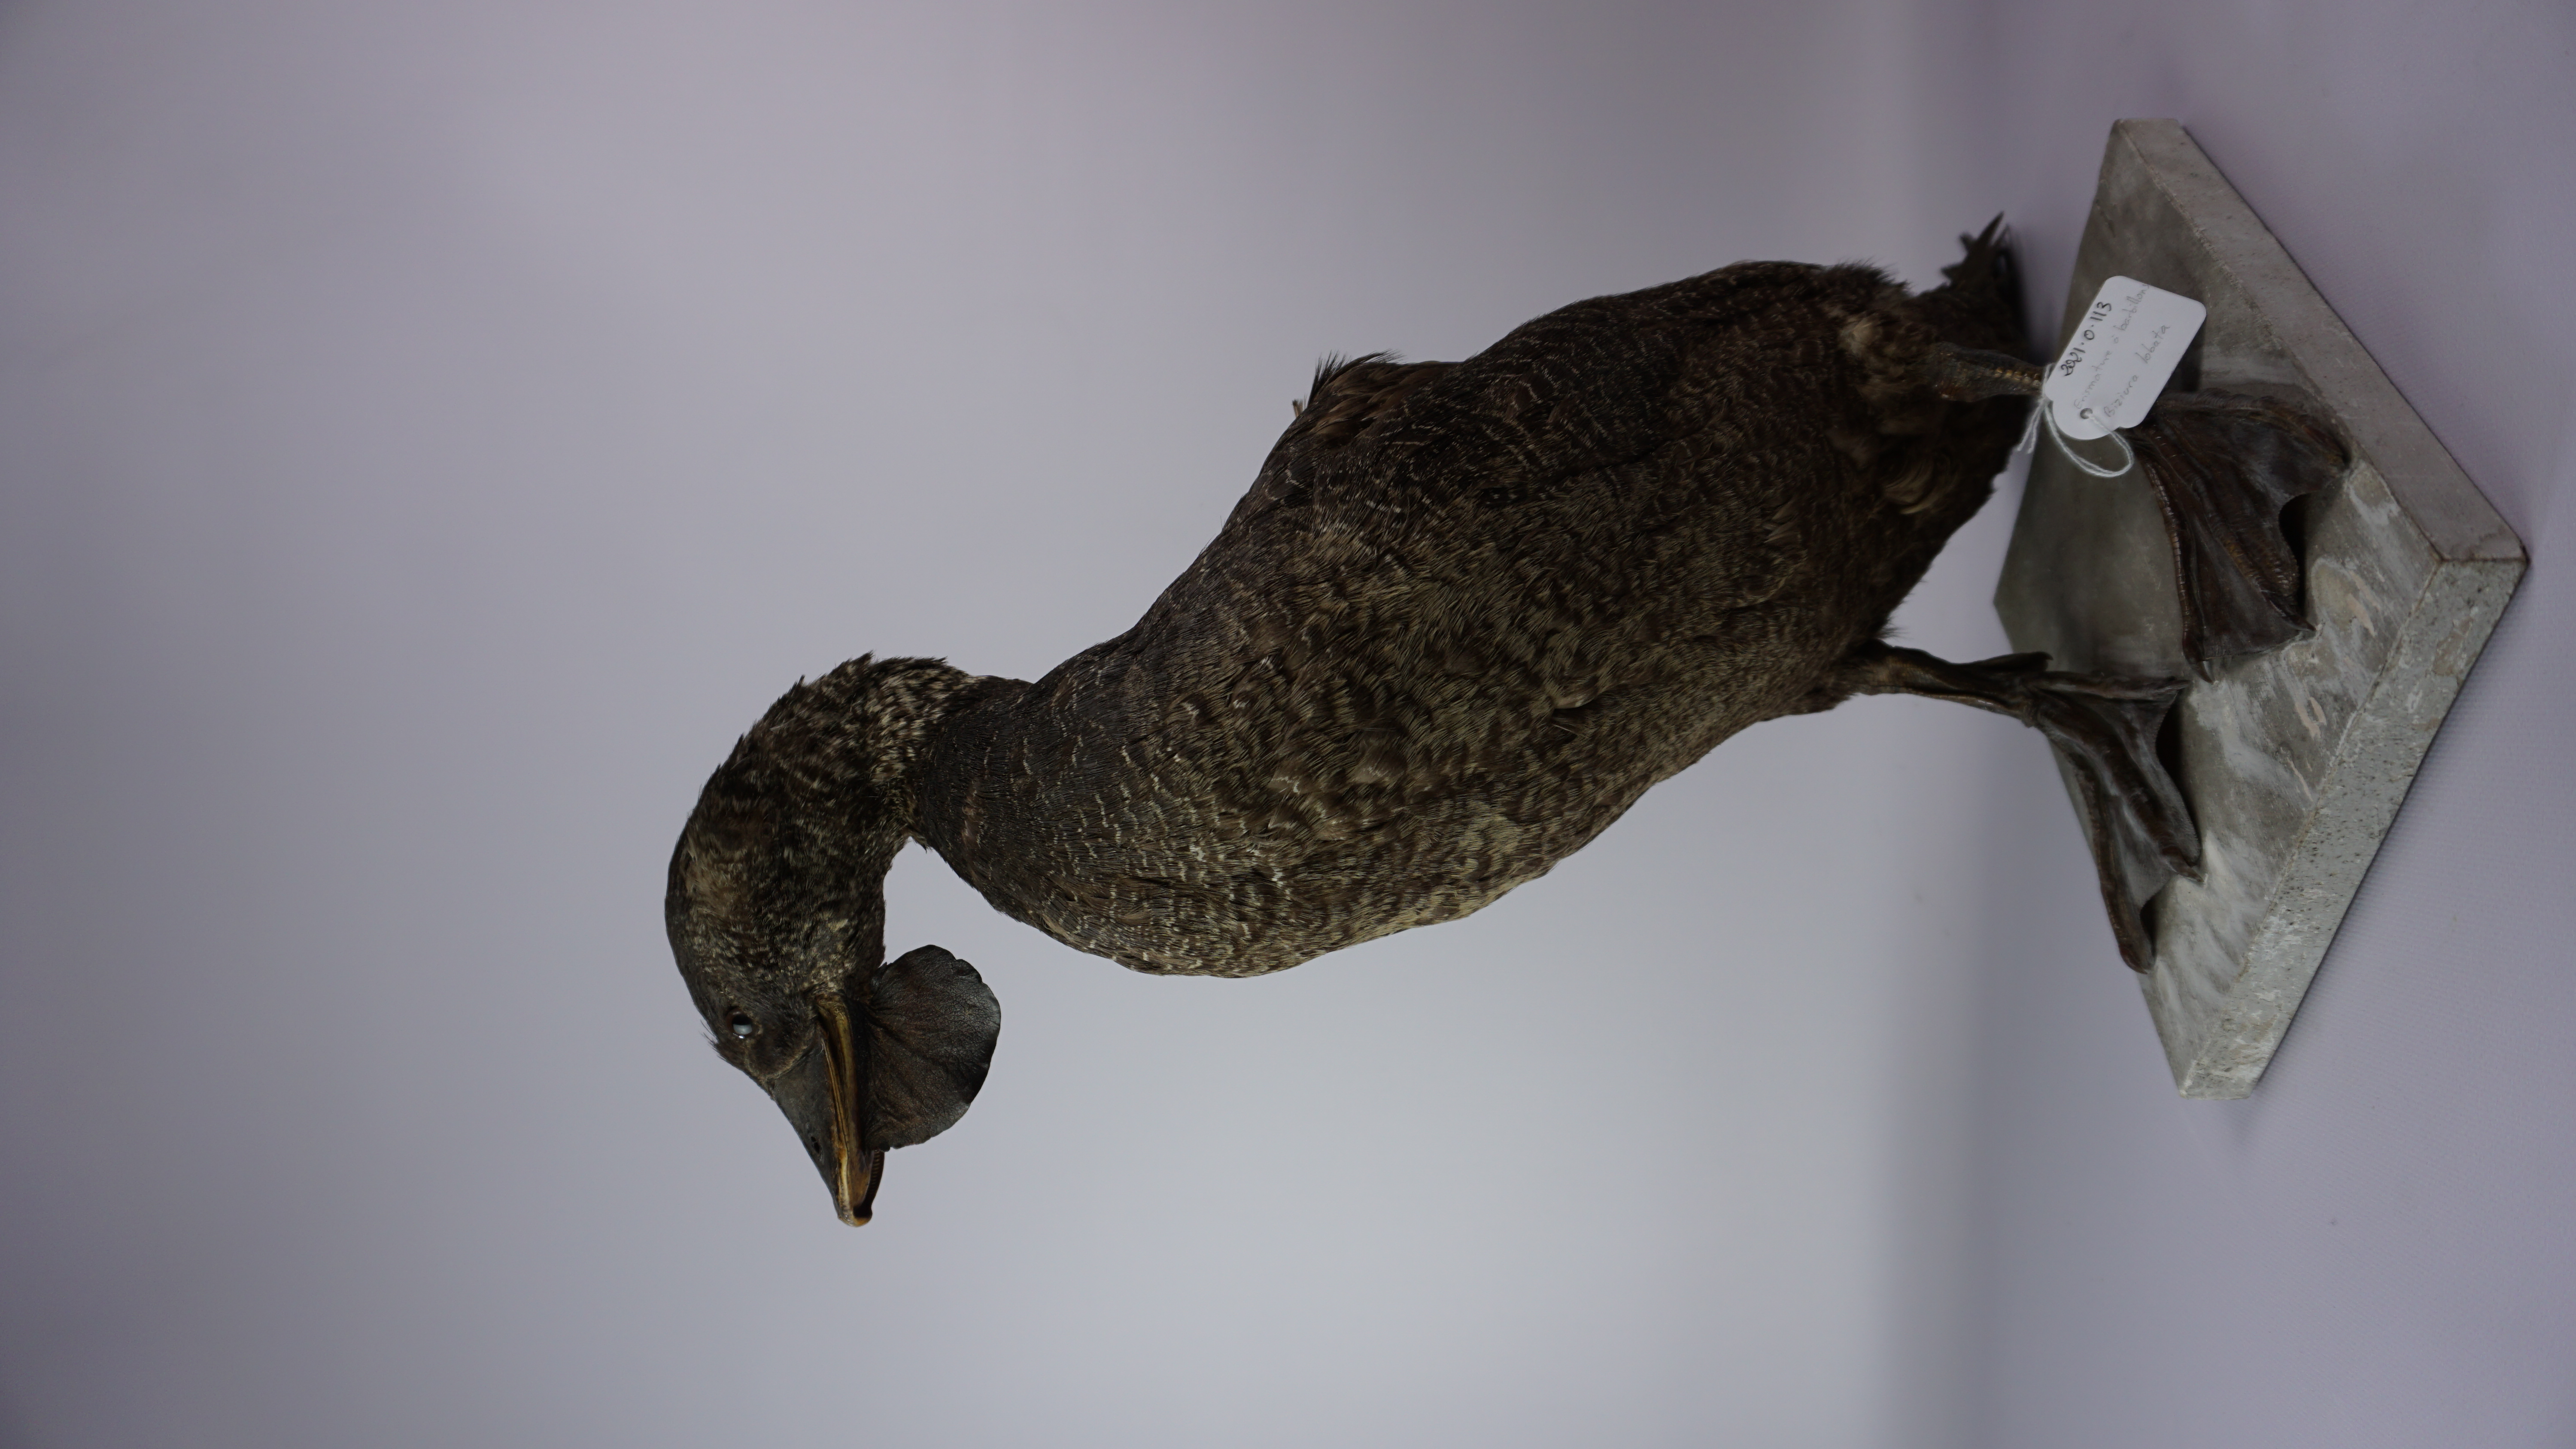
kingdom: Animalia
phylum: Chordata
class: Aves
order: Anseriformes
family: Anatidae
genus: Biziura
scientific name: Biziura lobata
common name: Musk duck
